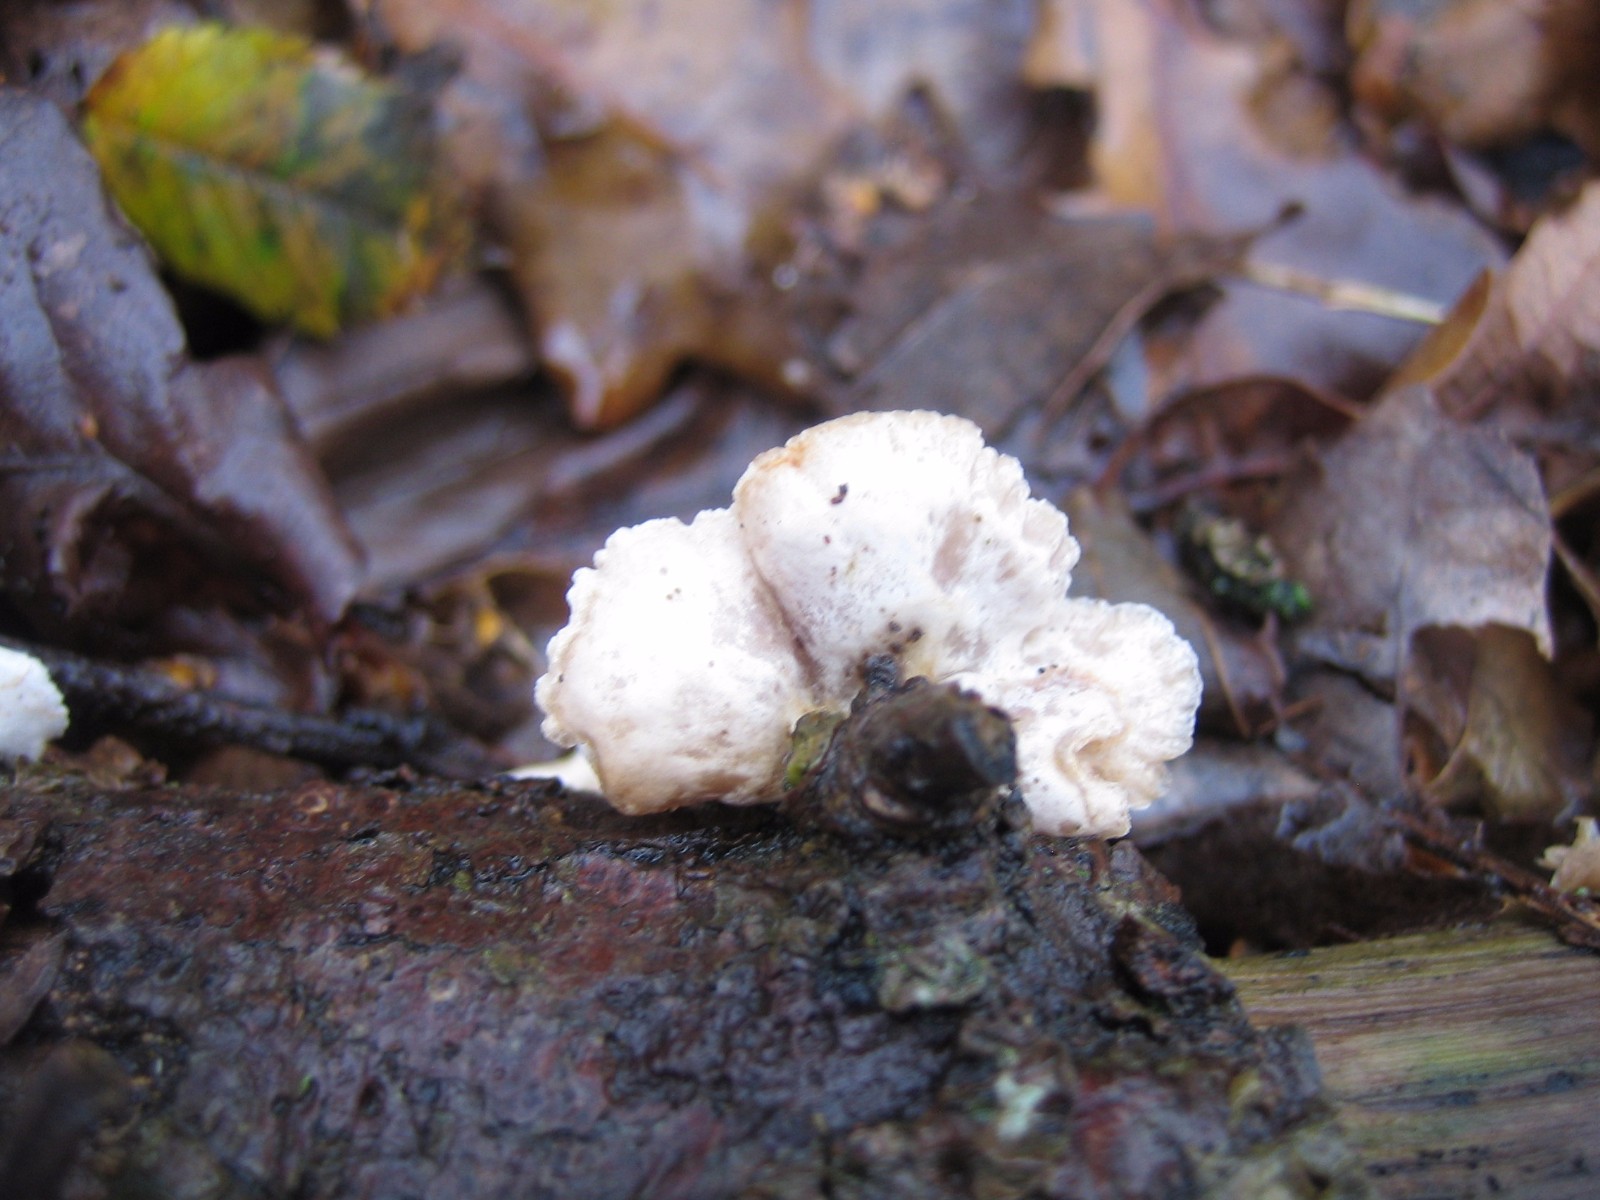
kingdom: Fungi
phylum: Basidiomycota
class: Agaricomycetes
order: Agaricales
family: Crepidotaceae
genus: Crepidotus
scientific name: Crepidotus
